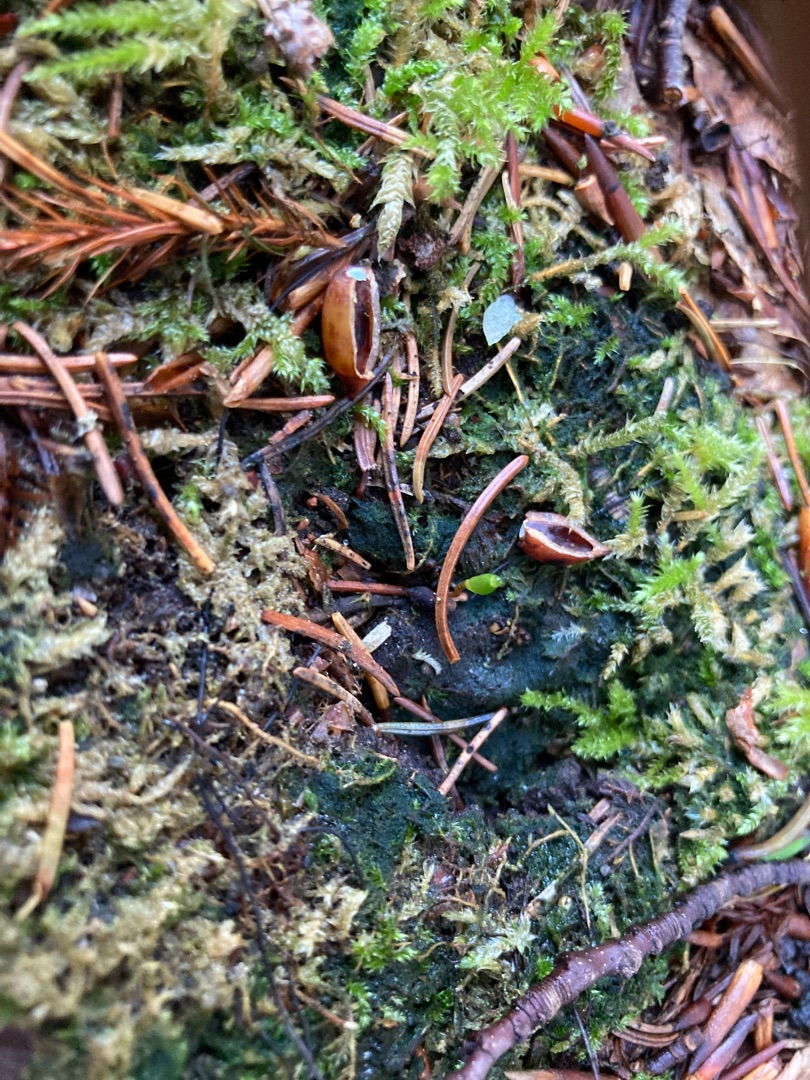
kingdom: Plantae
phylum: Bryophyta
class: Bryopsida
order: Buxbaumiales
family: Buxbaumiaceae
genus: Buxbaumia
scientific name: Buxbaumia viridis
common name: Grøn buxbaumia
